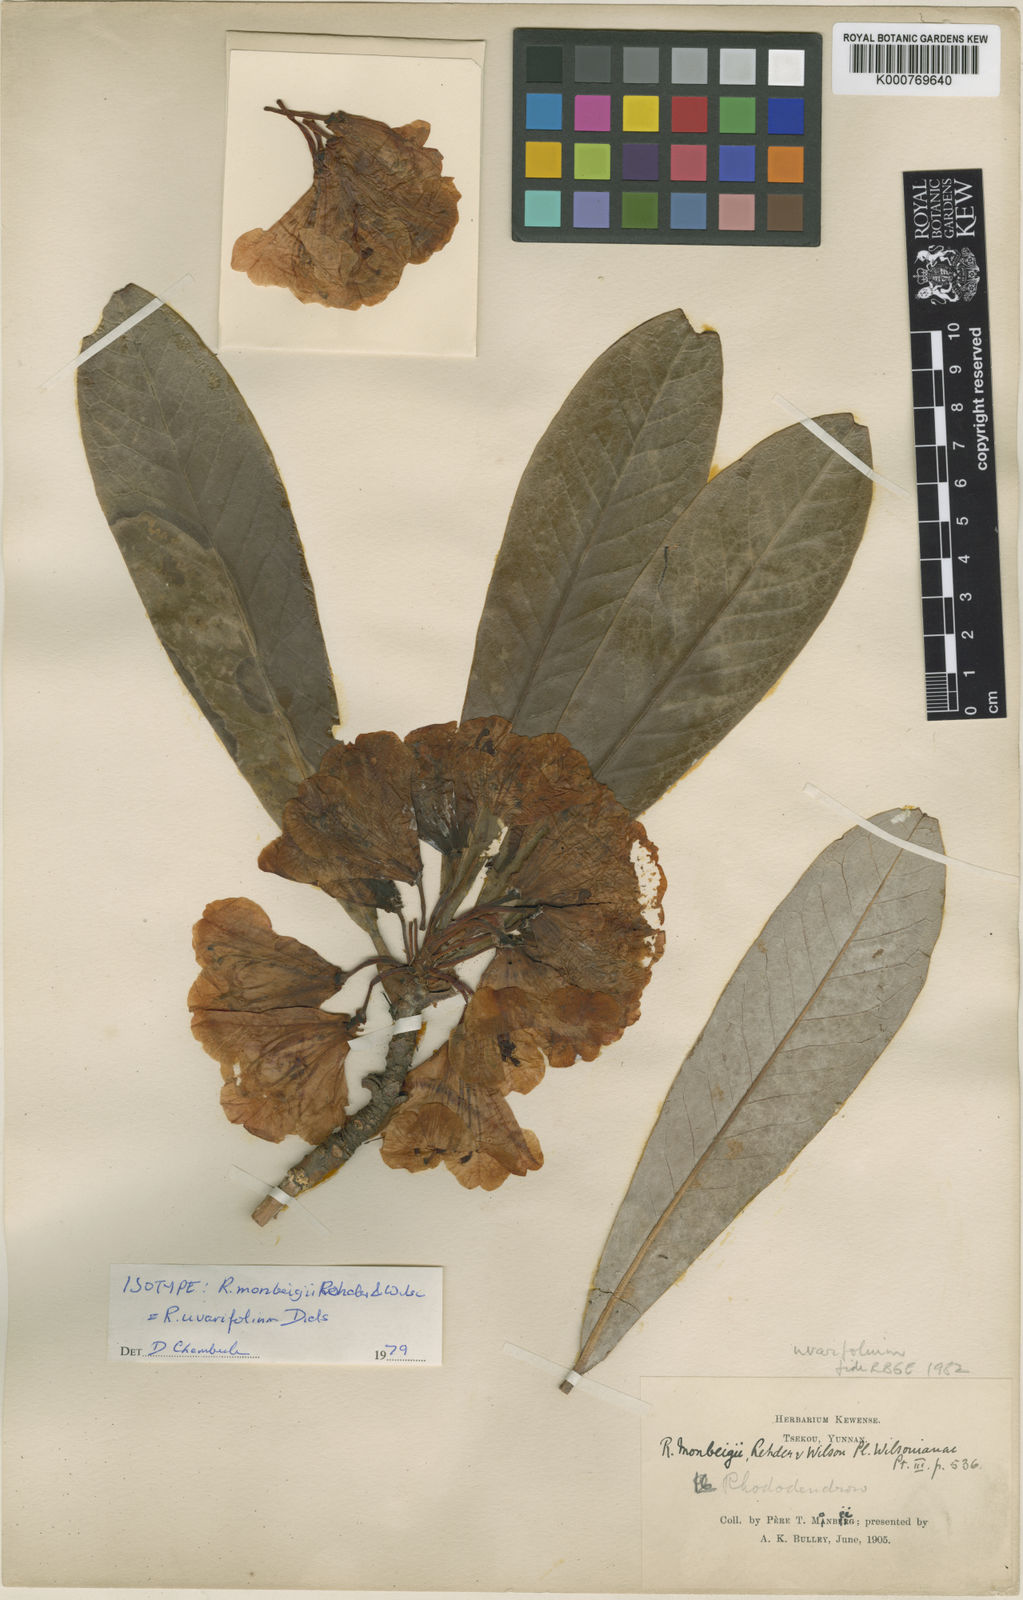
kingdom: Plantae
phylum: Tracheophyta
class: Magnoliopsida
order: Ericales
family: Ericaceae
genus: Rhododendron
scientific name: Rhododendron uvariifolium
